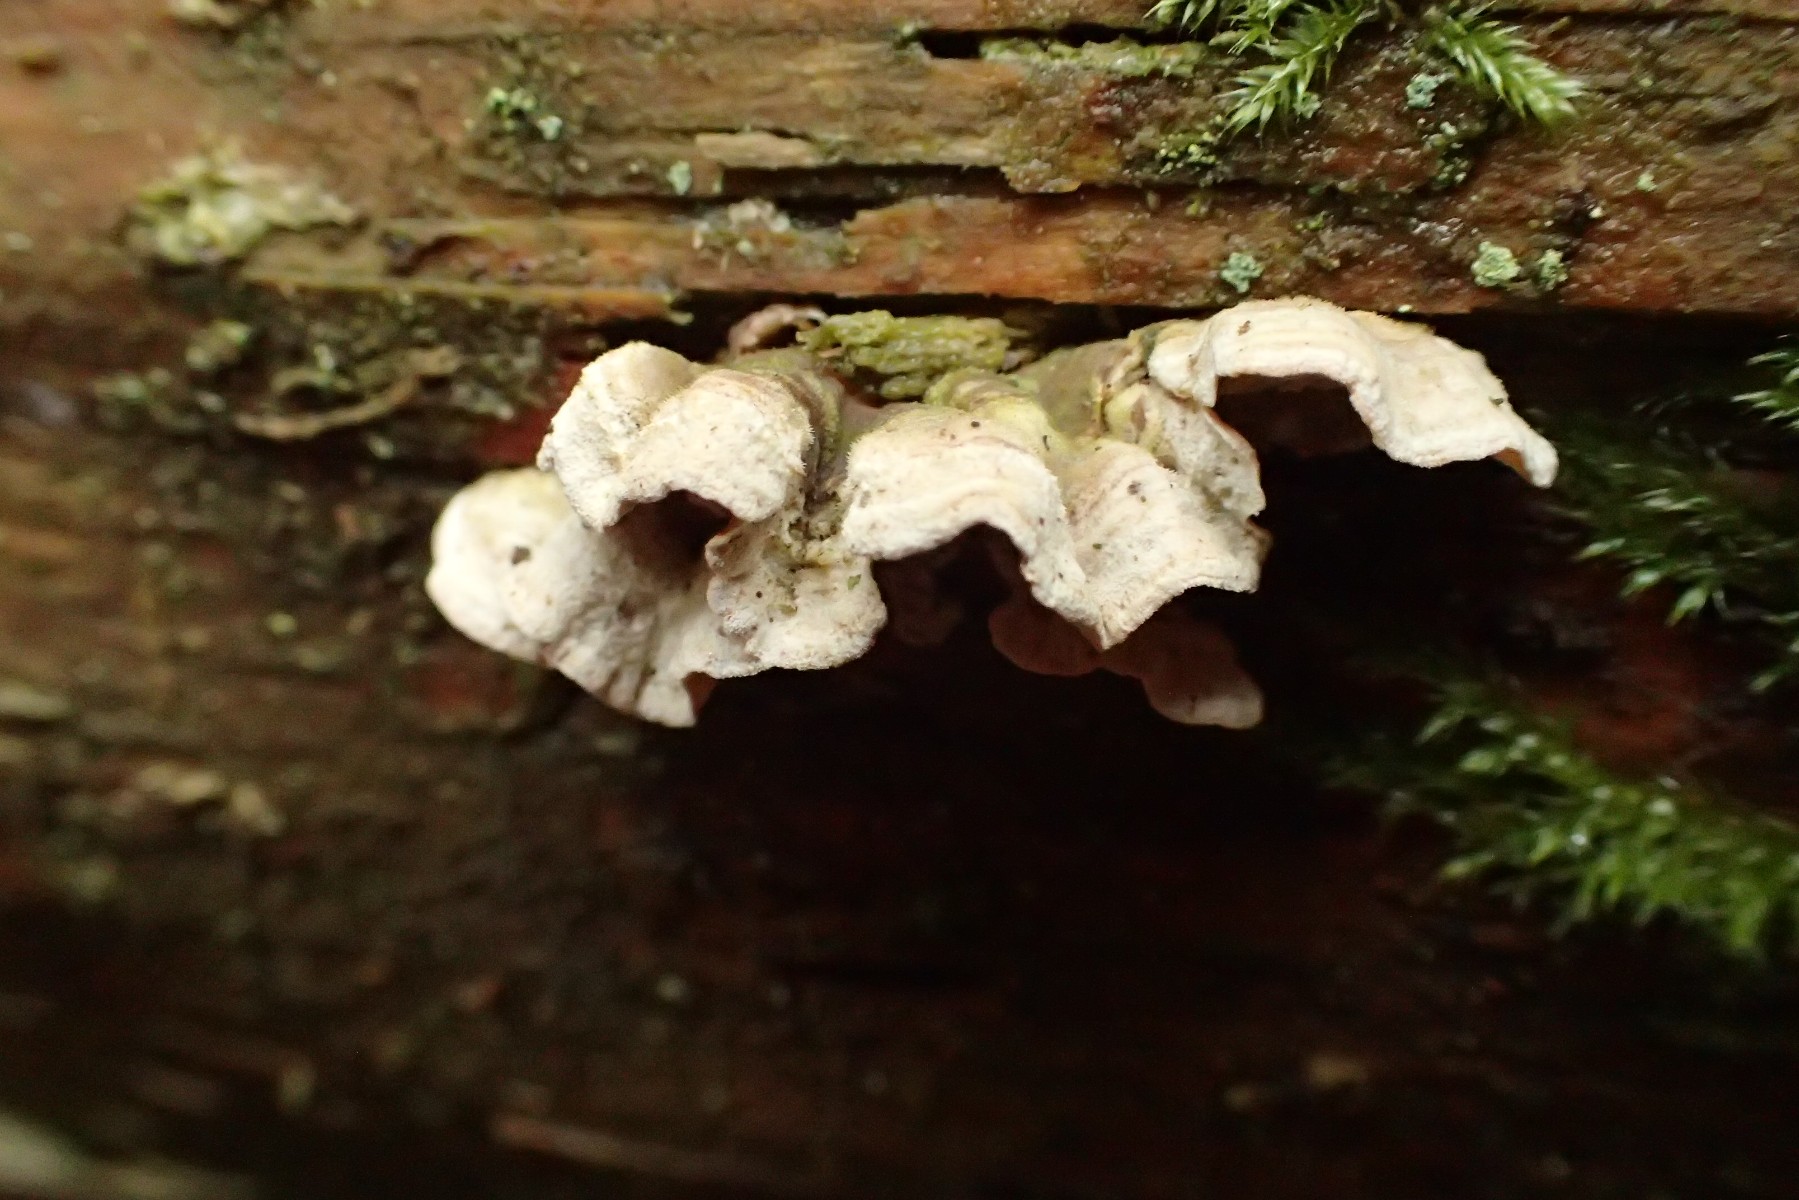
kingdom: Fungi
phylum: Basidiomycota
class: Agaricomycetes
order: Polyporales
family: Incrustoporiaceae
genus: Skeletocutis
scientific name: Skeletocutis carneogrisea
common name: rødgrå krystalporesvamp
